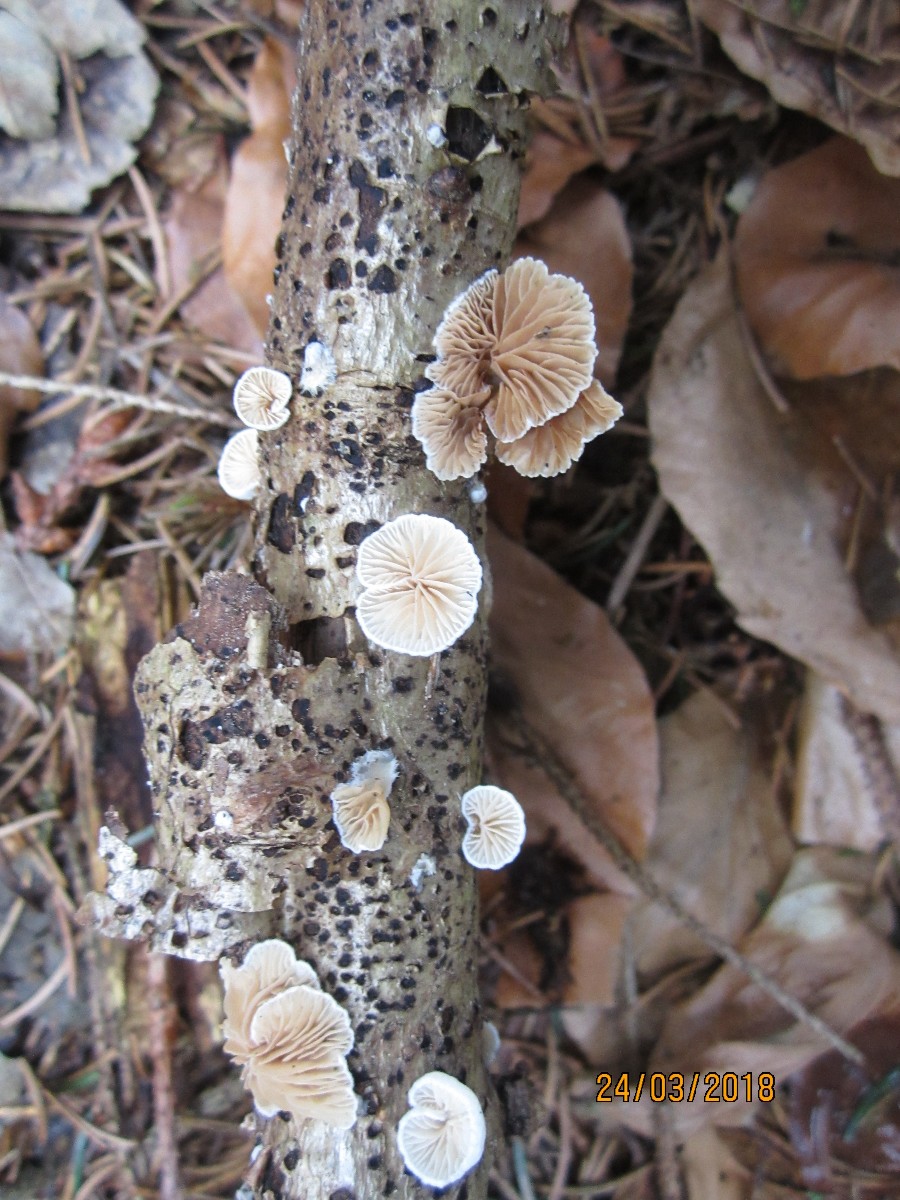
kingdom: Fungi
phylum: Basidiomycota
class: Agaricomycetes
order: Agaricales
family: Crepidotaceae
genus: Crepidotus
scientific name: Crepidotus cesatii
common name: almindelig muslingesvamp
